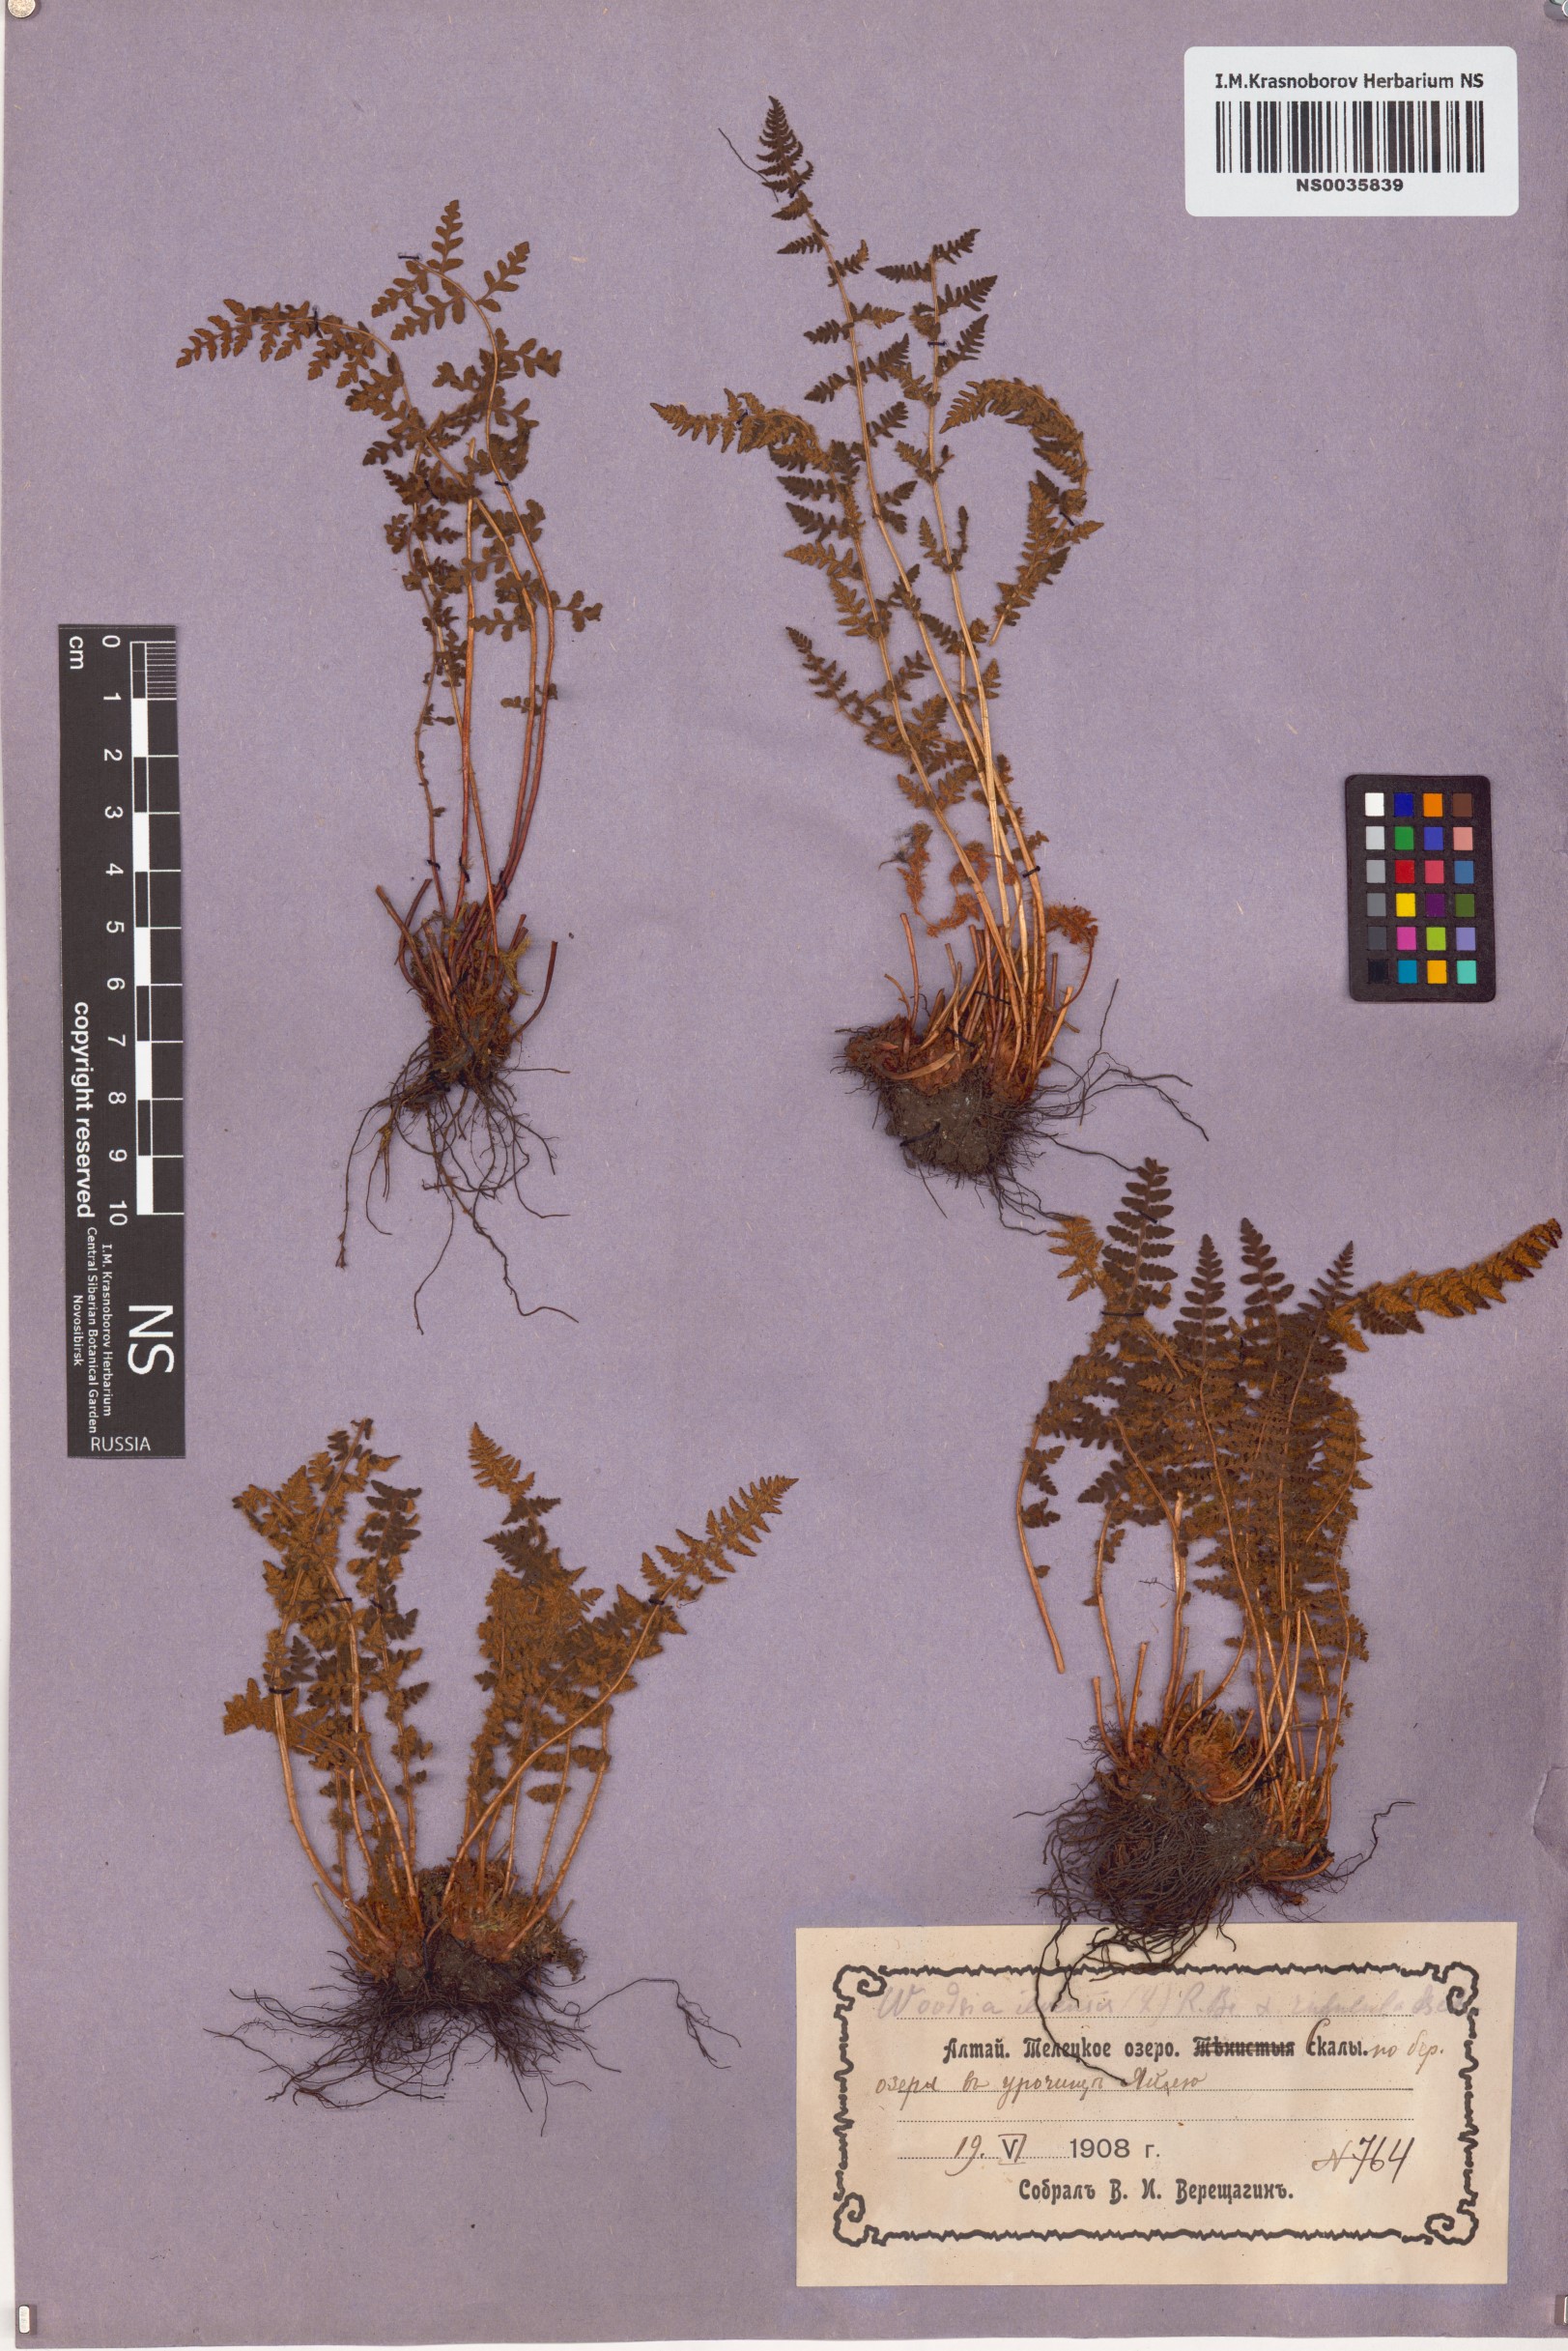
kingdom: Plantae
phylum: Tracheophyta
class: Polypodiopsida
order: Polypodiales
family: Woodsiaceae
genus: Woodsia
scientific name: Woodsia ilvensis
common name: Fragrant woodsia
